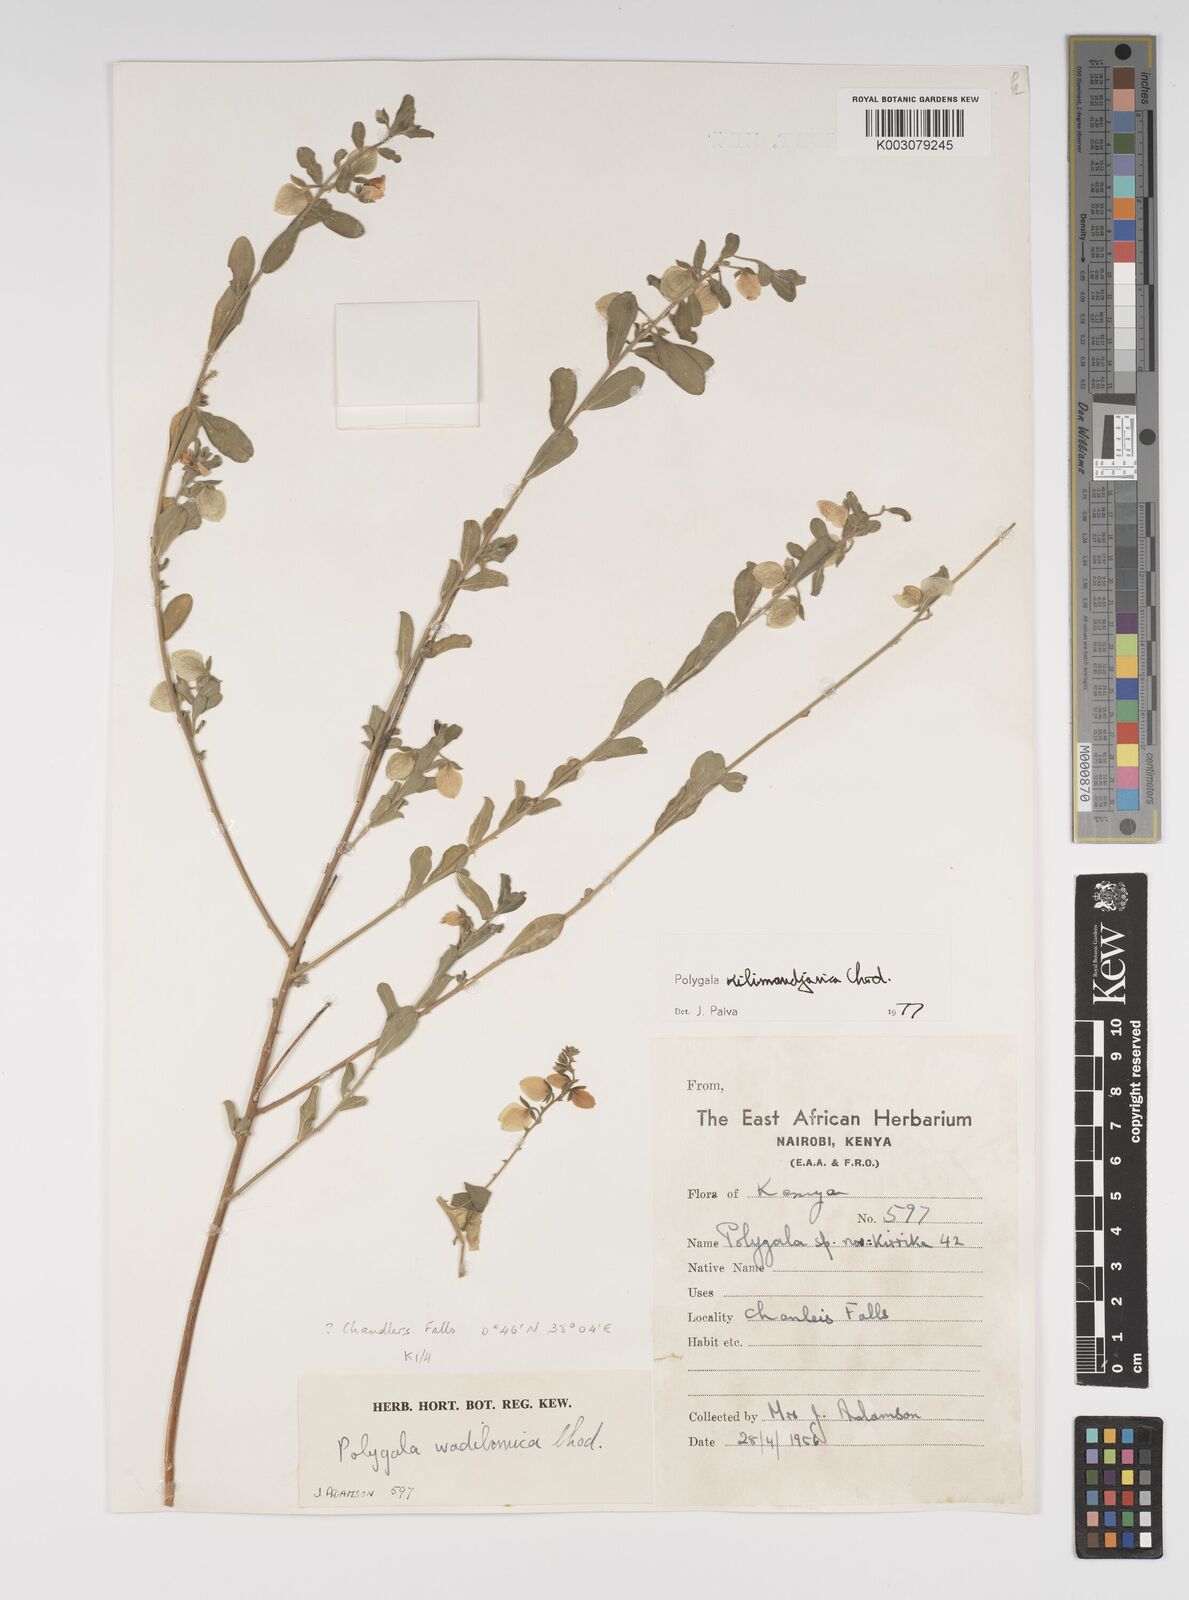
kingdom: Plantae
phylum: Tracheophyta
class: Magnoliopsida
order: Fabales
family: Polygalaceae
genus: Polygala
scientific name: Polygala kilimandjarica
